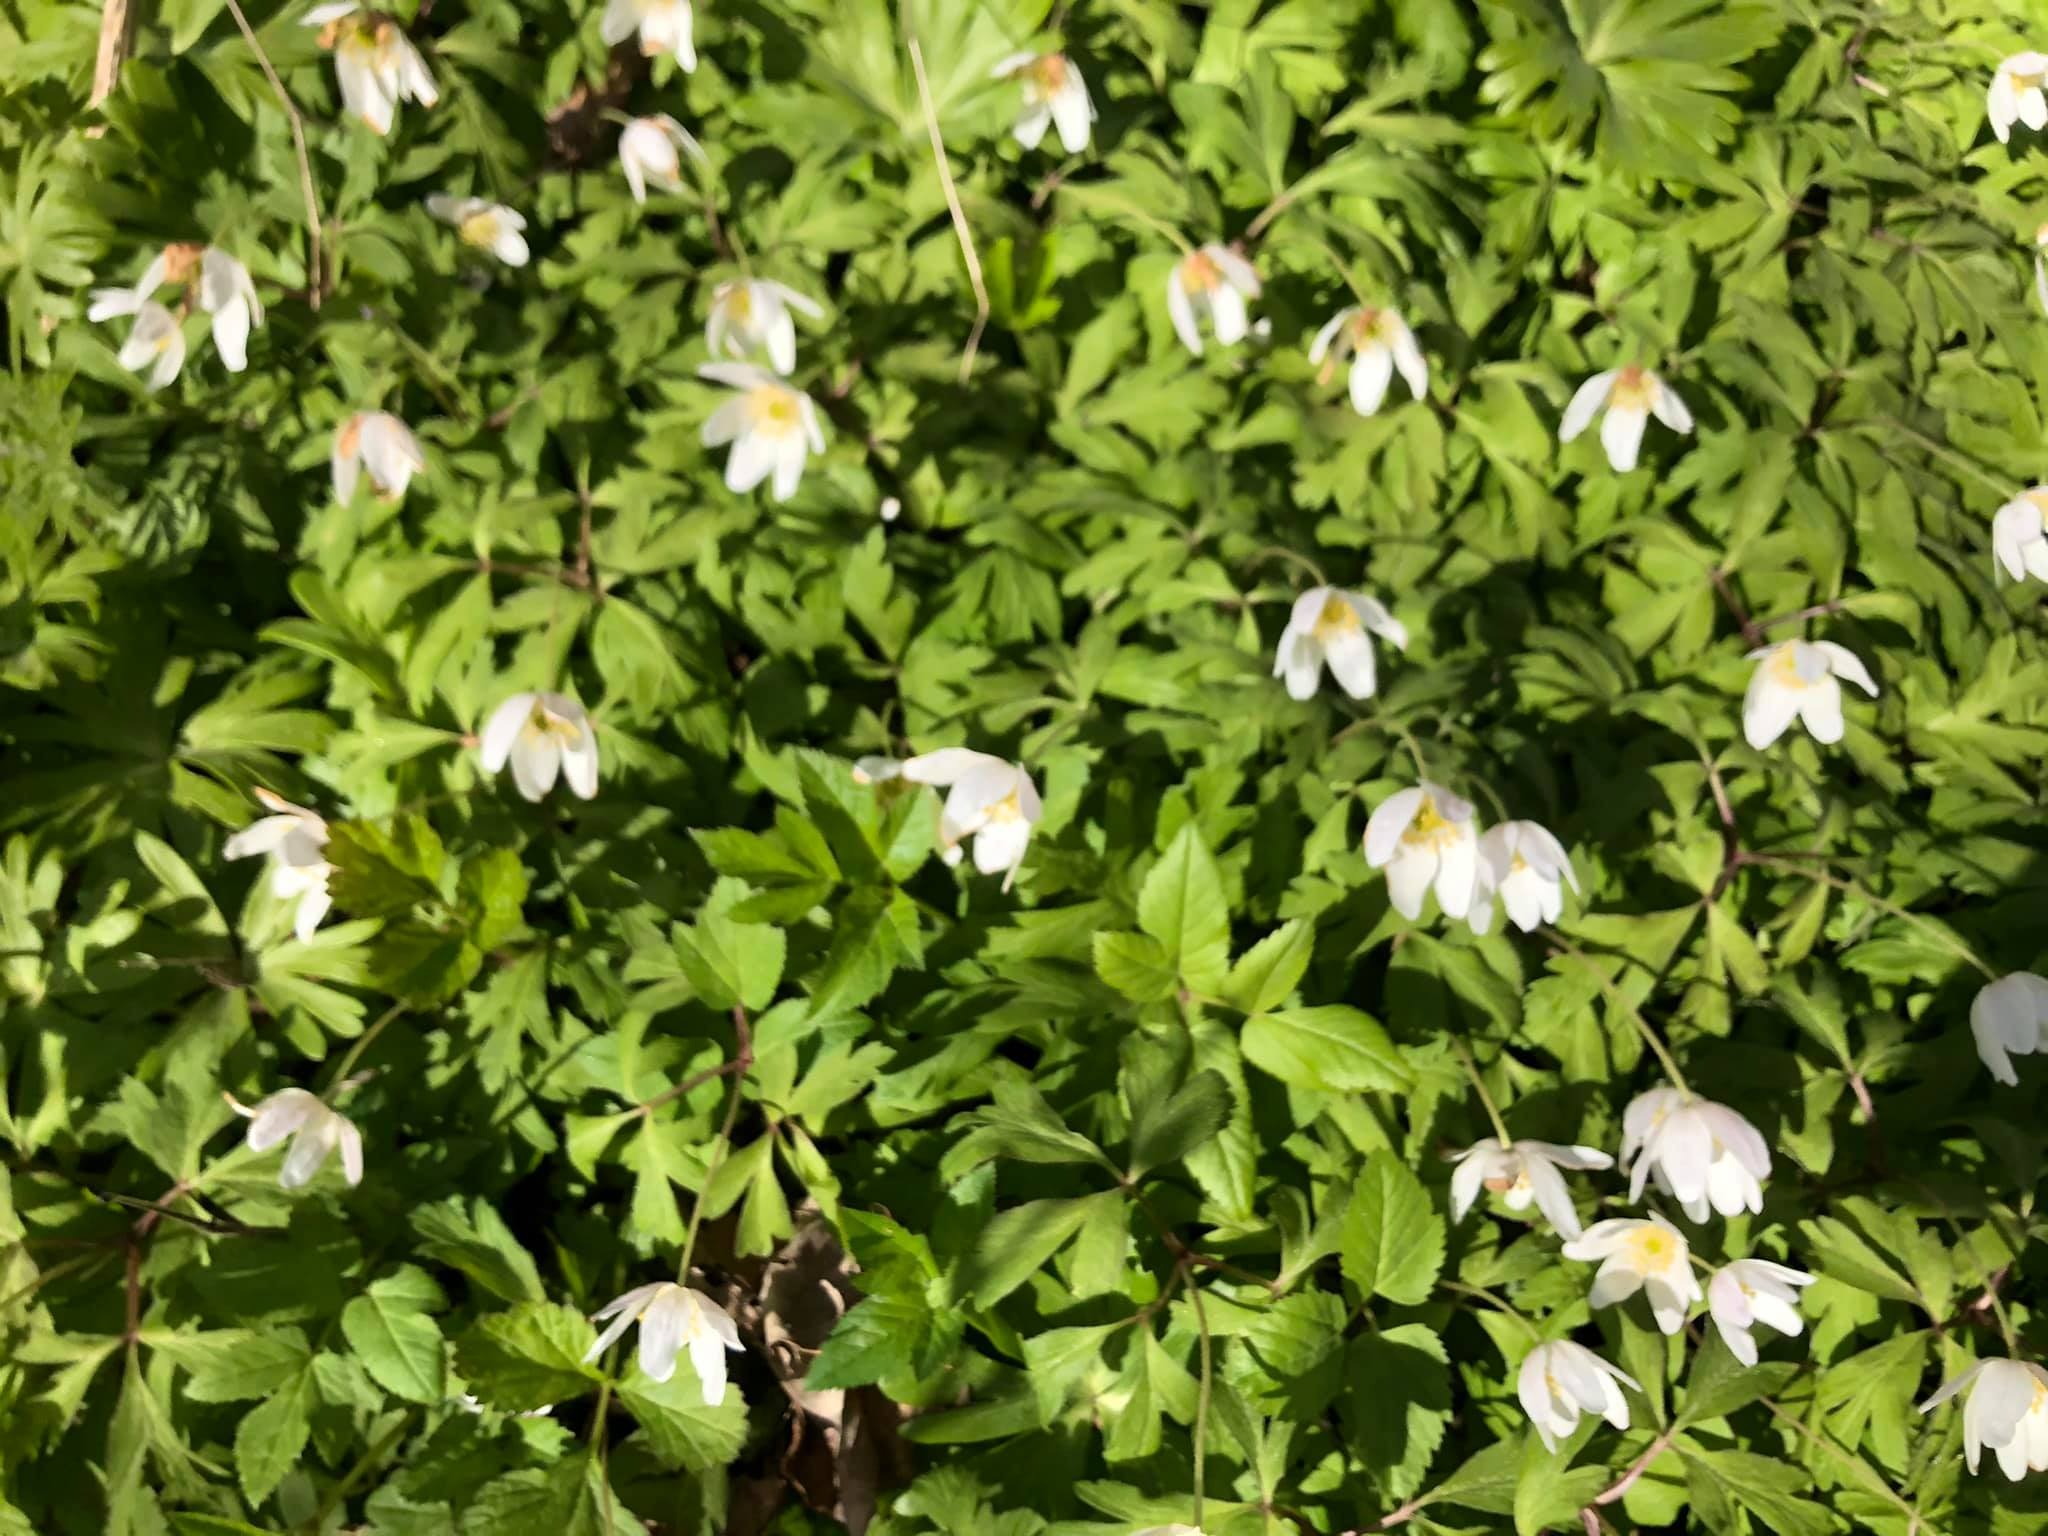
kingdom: Plantae
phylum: Tracheophyta
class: Magnoliopsida
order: Ranunculales
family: Ranunculaceae
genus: Anemone
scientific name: Anemone nemorosa
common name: Hvid anemone
